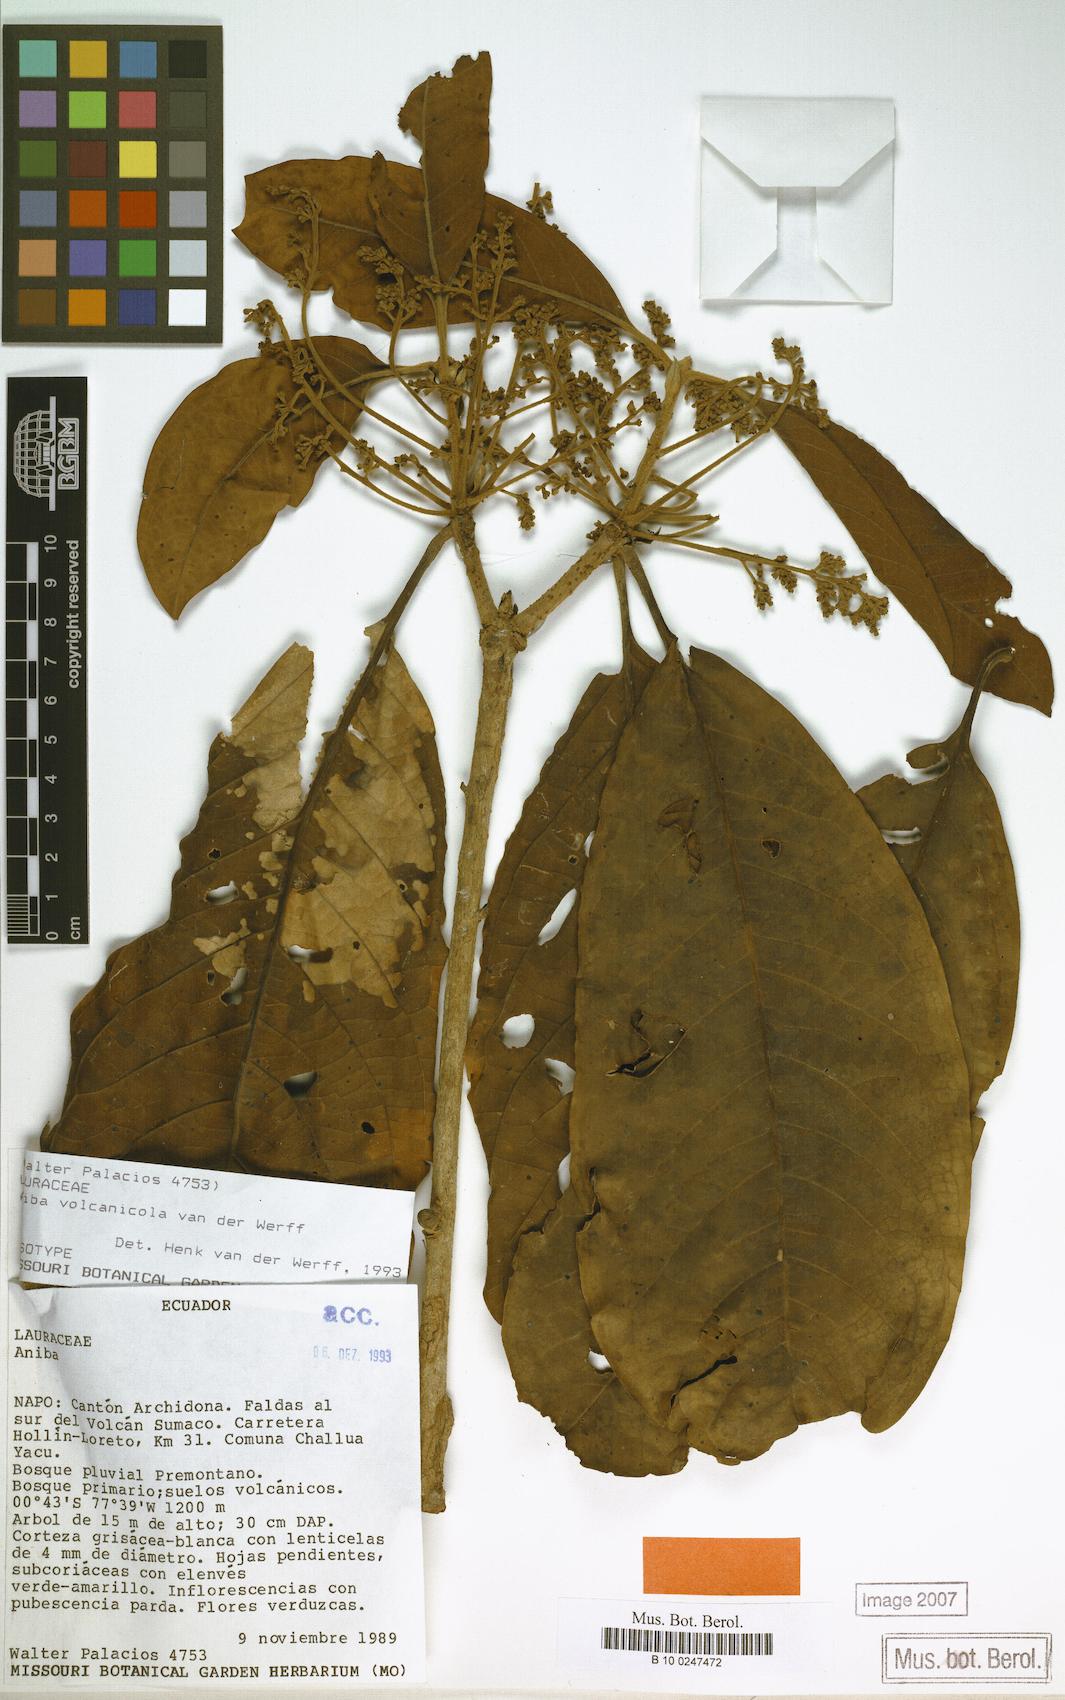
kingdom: Plantae
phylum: Tracheophyta
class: Magnoliopsida
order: Laurales
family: Lauraceae
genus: Aniba
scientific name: Aniba vulcanicola
